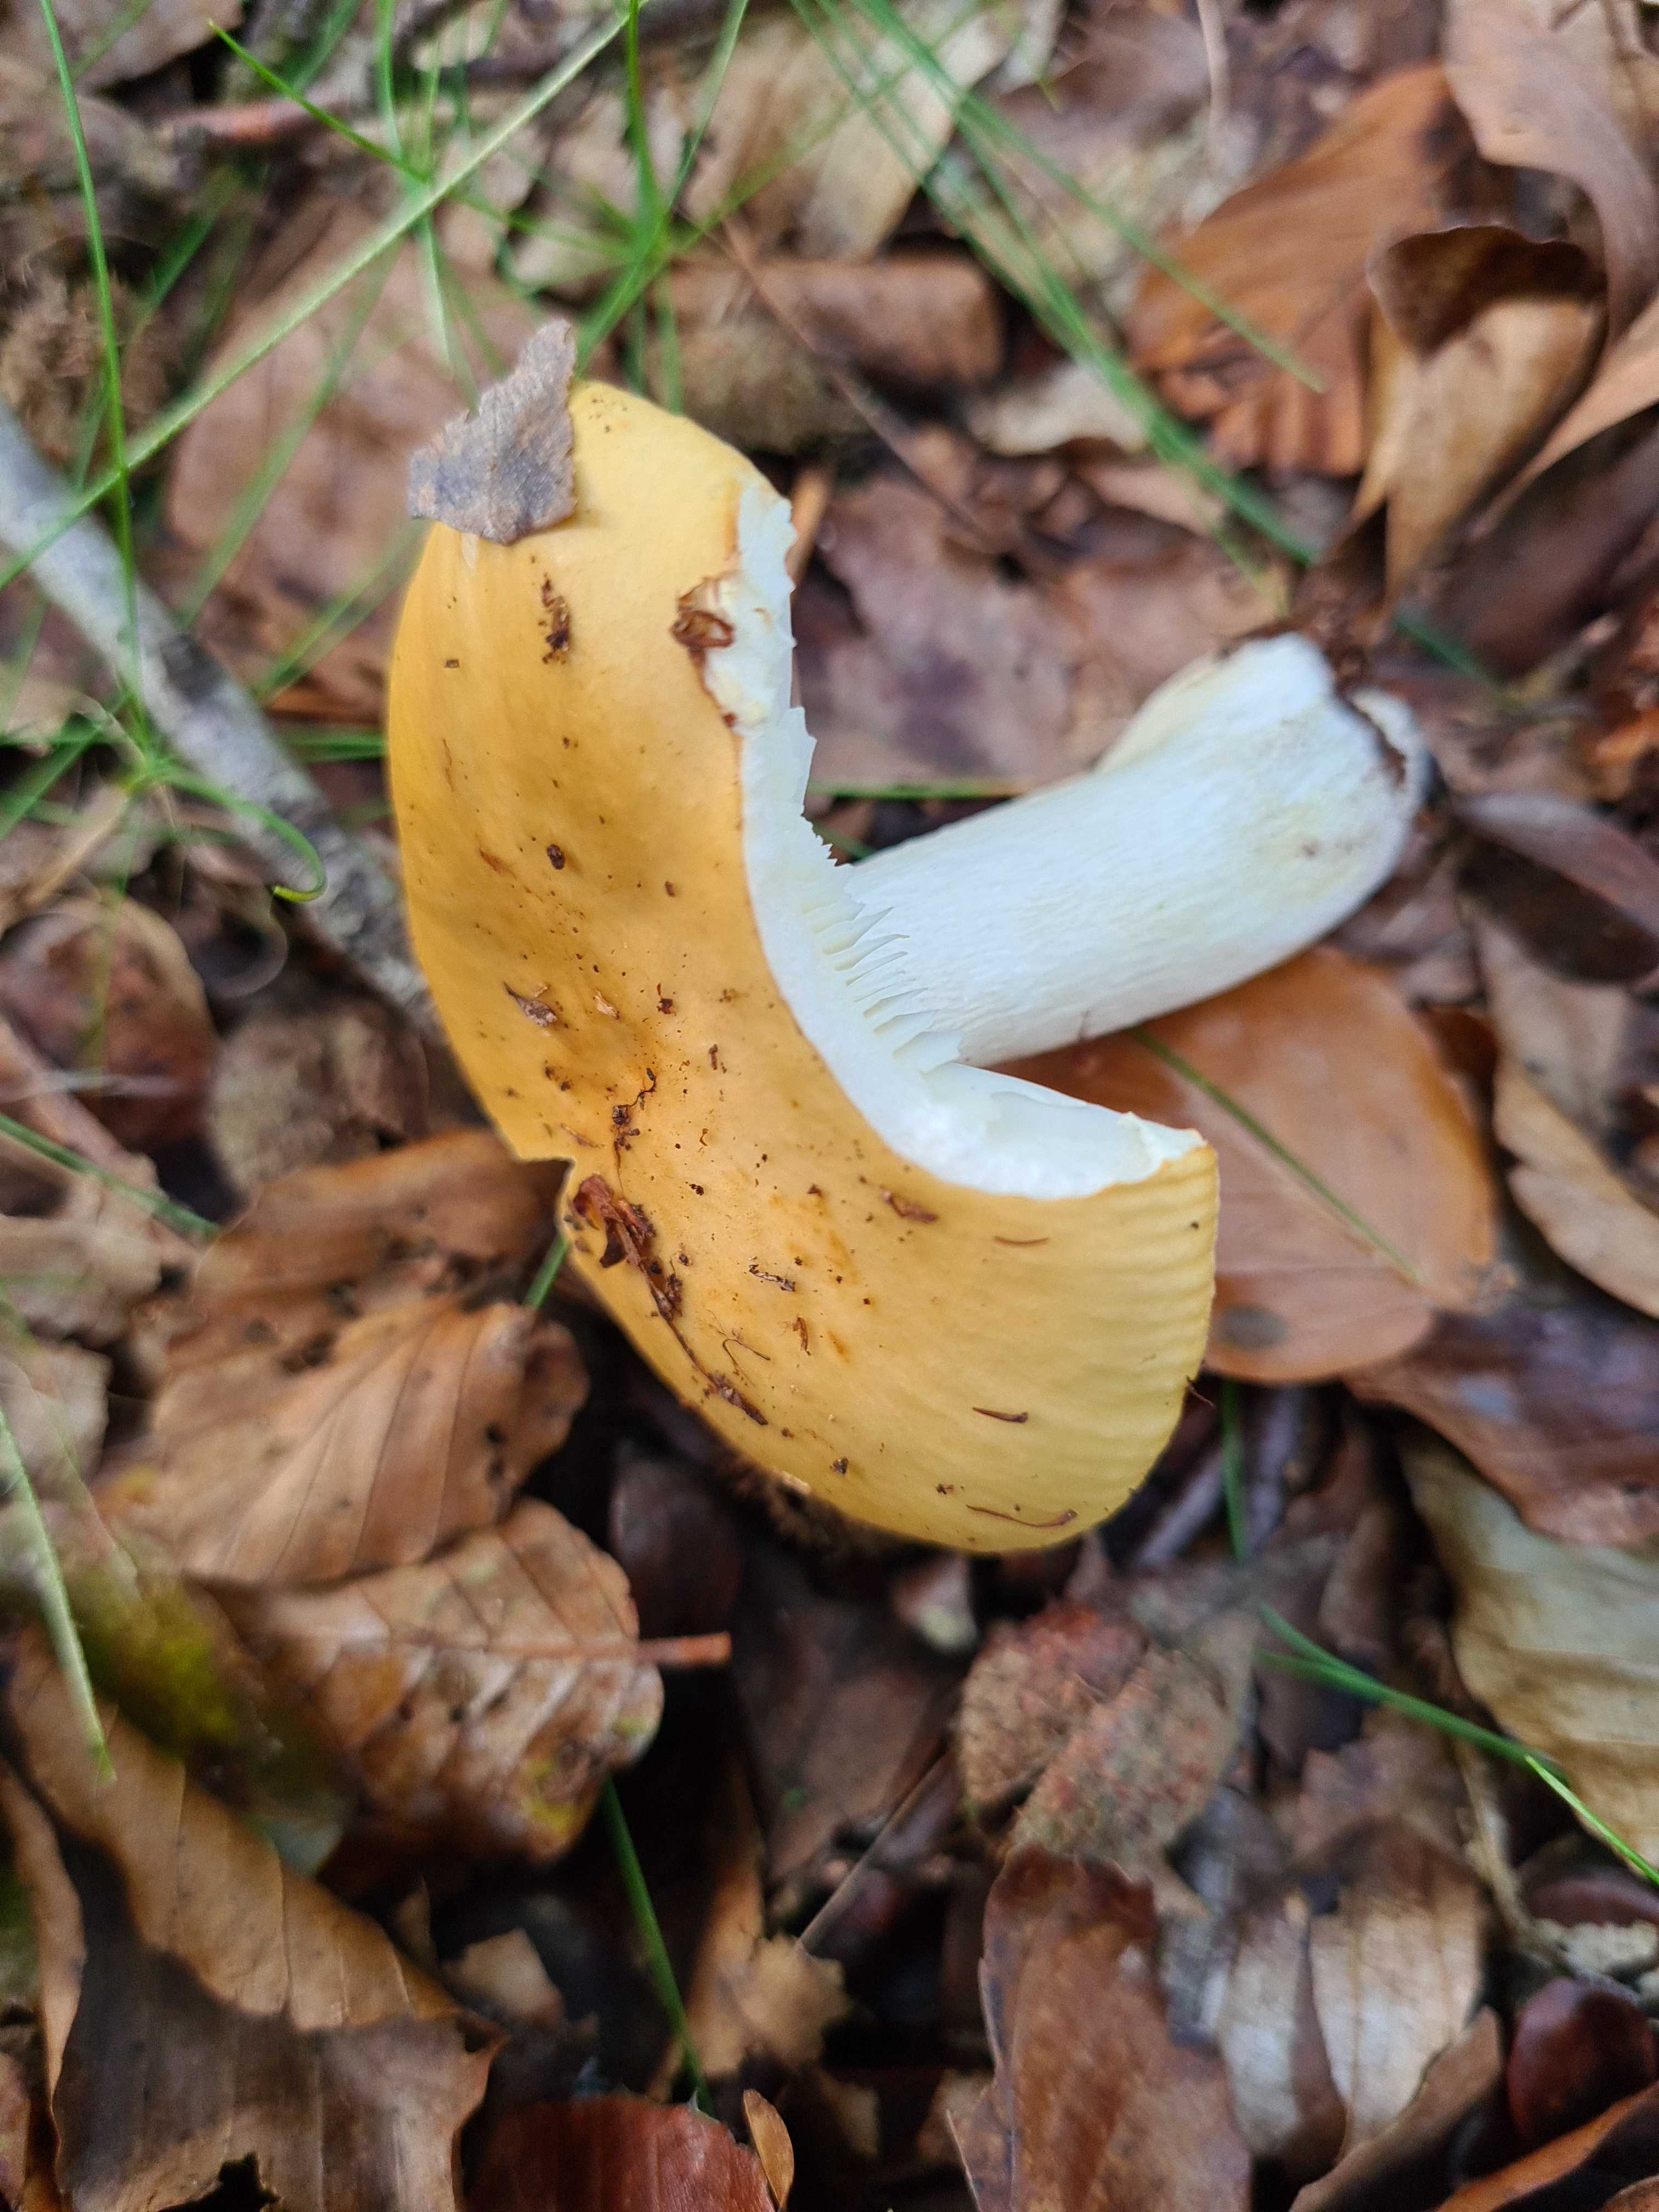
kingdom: Fungi
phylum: Basidiomycota
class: Agaricomycetes
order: Russulales
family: Russulaceae
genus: Russula
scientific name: Russula ochroleuca
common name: okkergul skørhat
